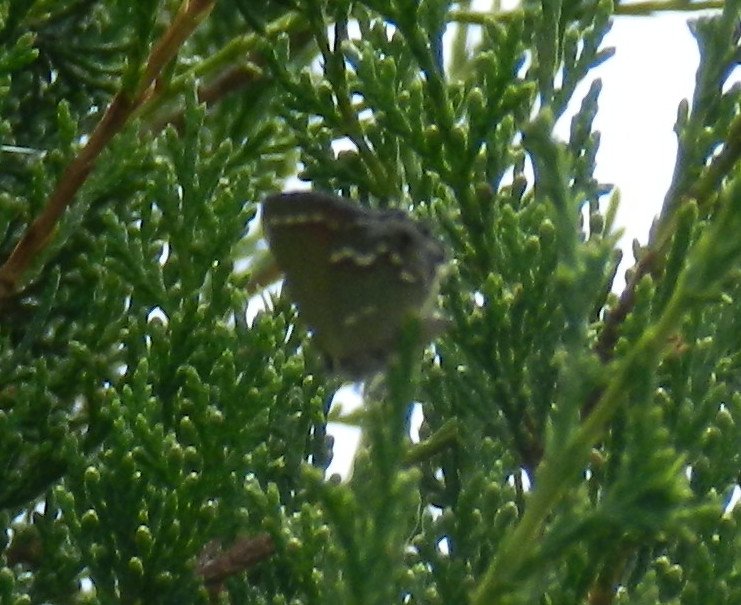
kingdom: Animalia
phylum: Arthropoda
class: Insecta
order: Lepidoptera
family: Lycaenidae
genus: Mitoura
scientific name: Mitoura gryneus
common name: Juniper Hairstreak
